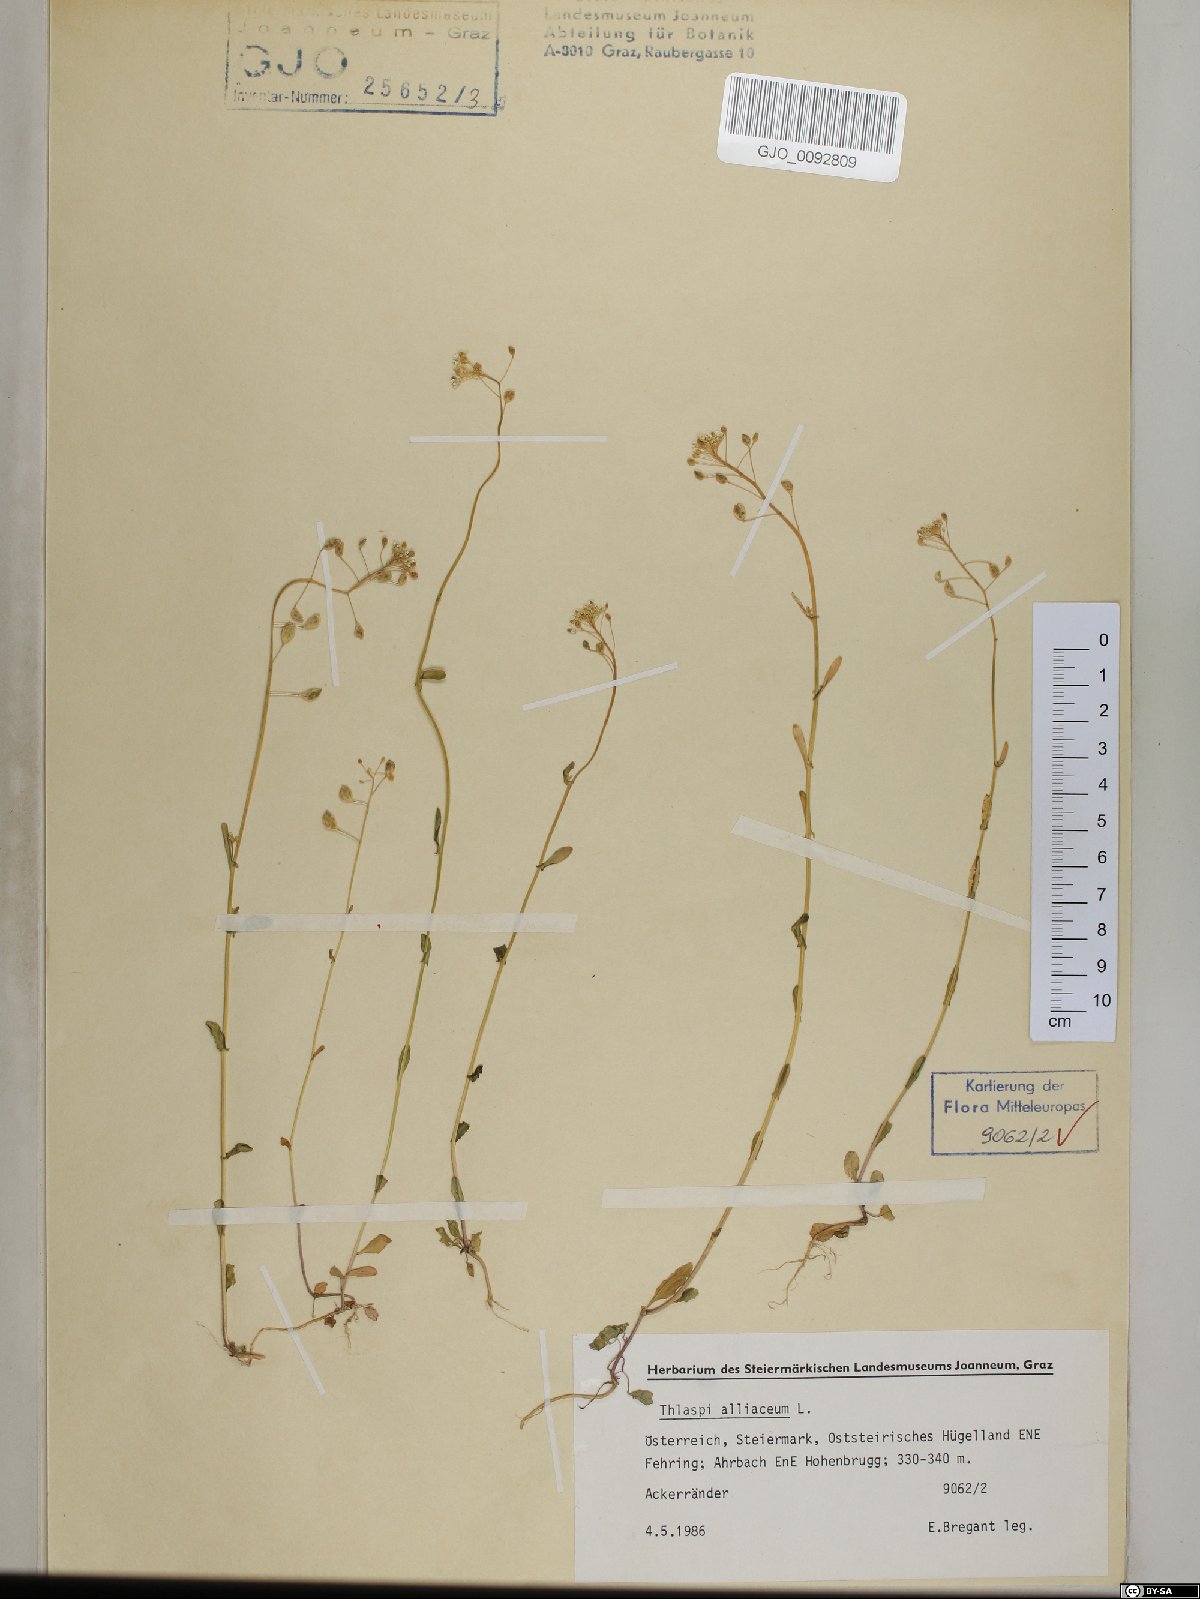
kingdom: Plantae
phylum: Tracheophyta
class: Magnoliopsida
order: Brassicales
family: Brassicaceae
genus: Mummenhoffia
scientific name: Mummenhoffia alliacea
